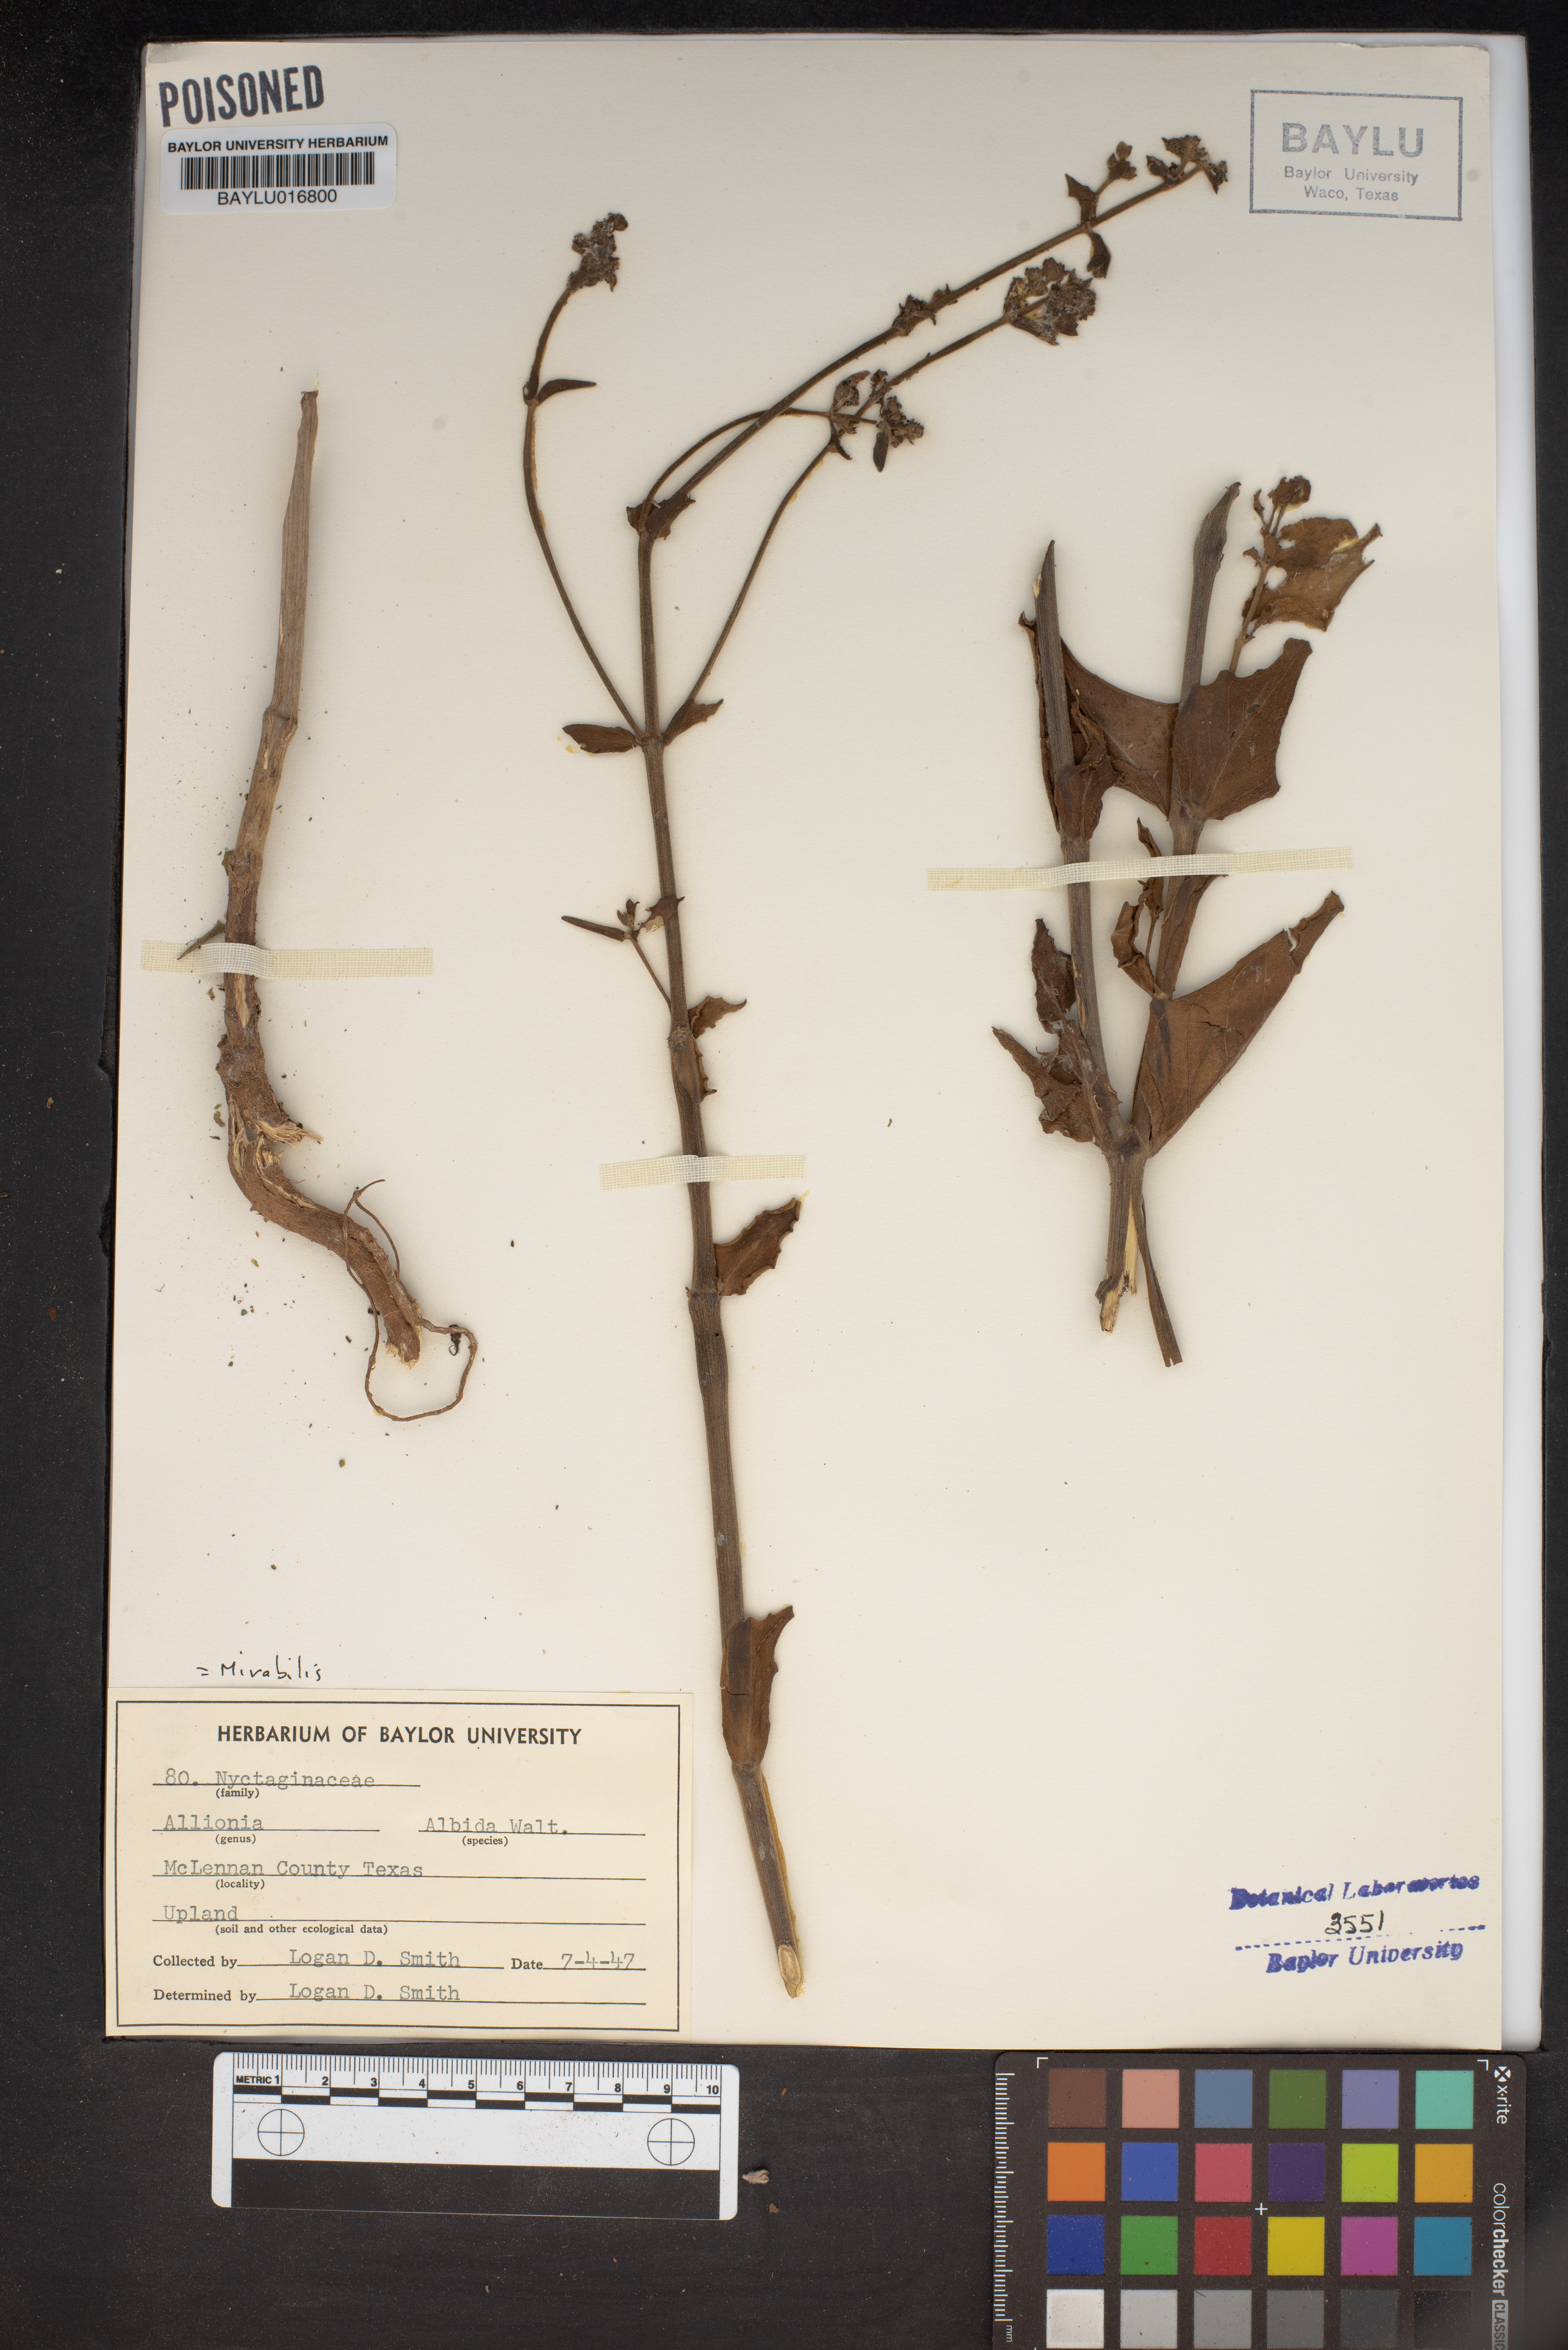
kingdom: Plantae
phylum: Tracheophyta
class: Magnoliopsida
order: Caryophyllales
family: Nyctaginaceae
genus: Mirabilis
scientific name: Mirabilis albida
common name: Hairy four-o'clock
